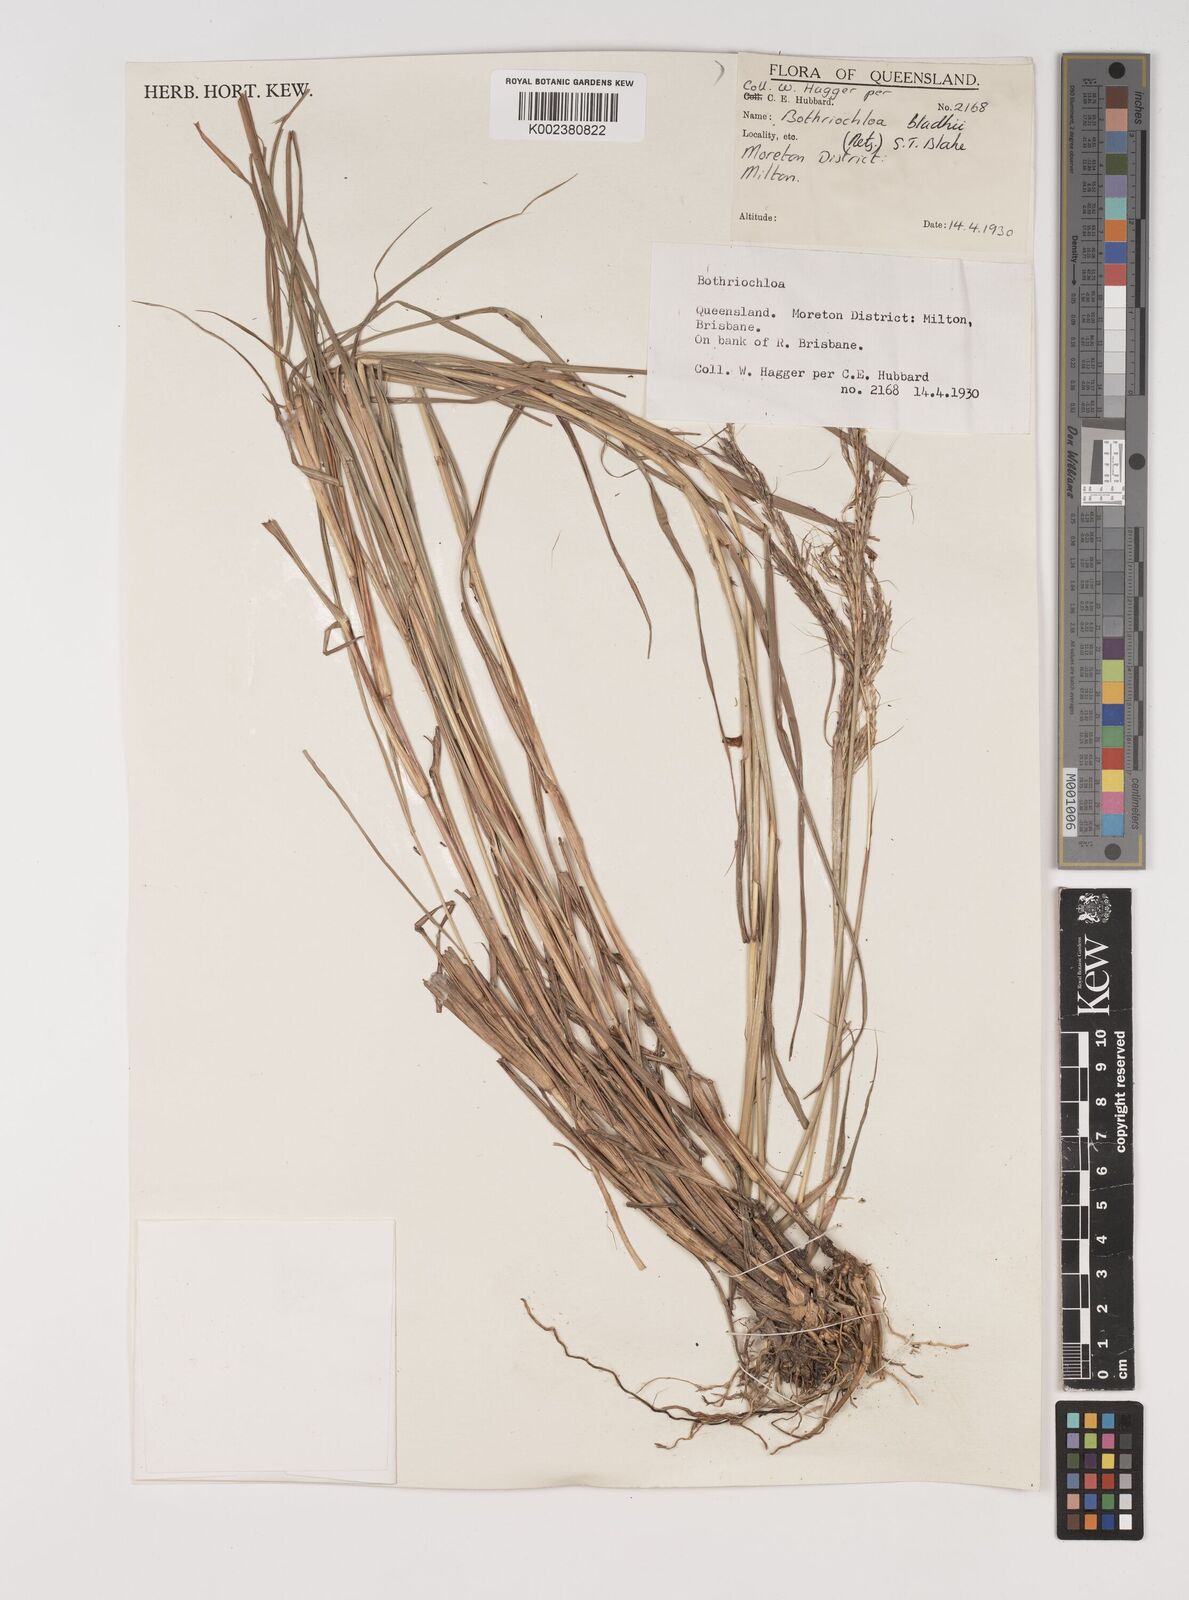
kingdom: Plantae
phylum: Tracheophyta
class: Liliopsida
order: Poales
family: Poaceae
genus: Bothriochloa
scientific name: Bothriochloa bladhii
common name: Caucasian bluestem
